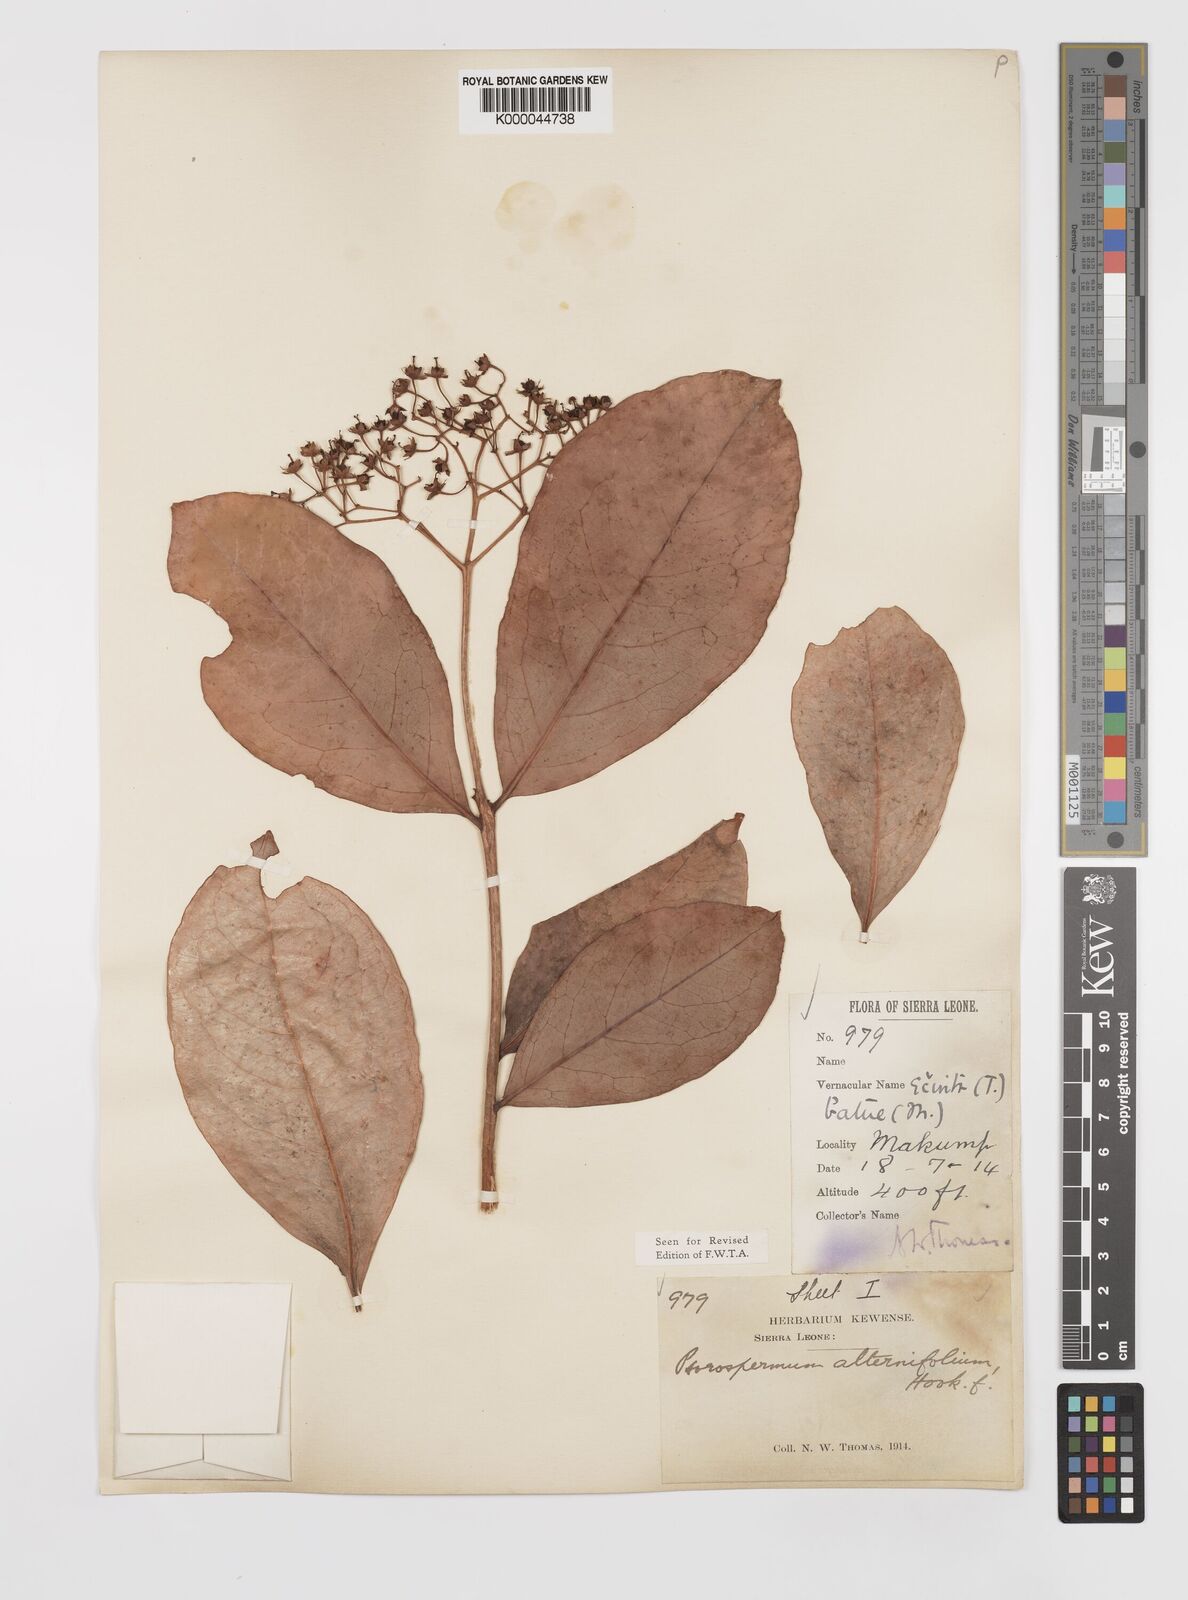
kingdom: Plantae
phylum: Tracheophyta
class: Magnoliopsida
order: Malpighiales
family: Hypericaceae
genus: Psorospermum
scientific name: Psorospermum alternifolium
